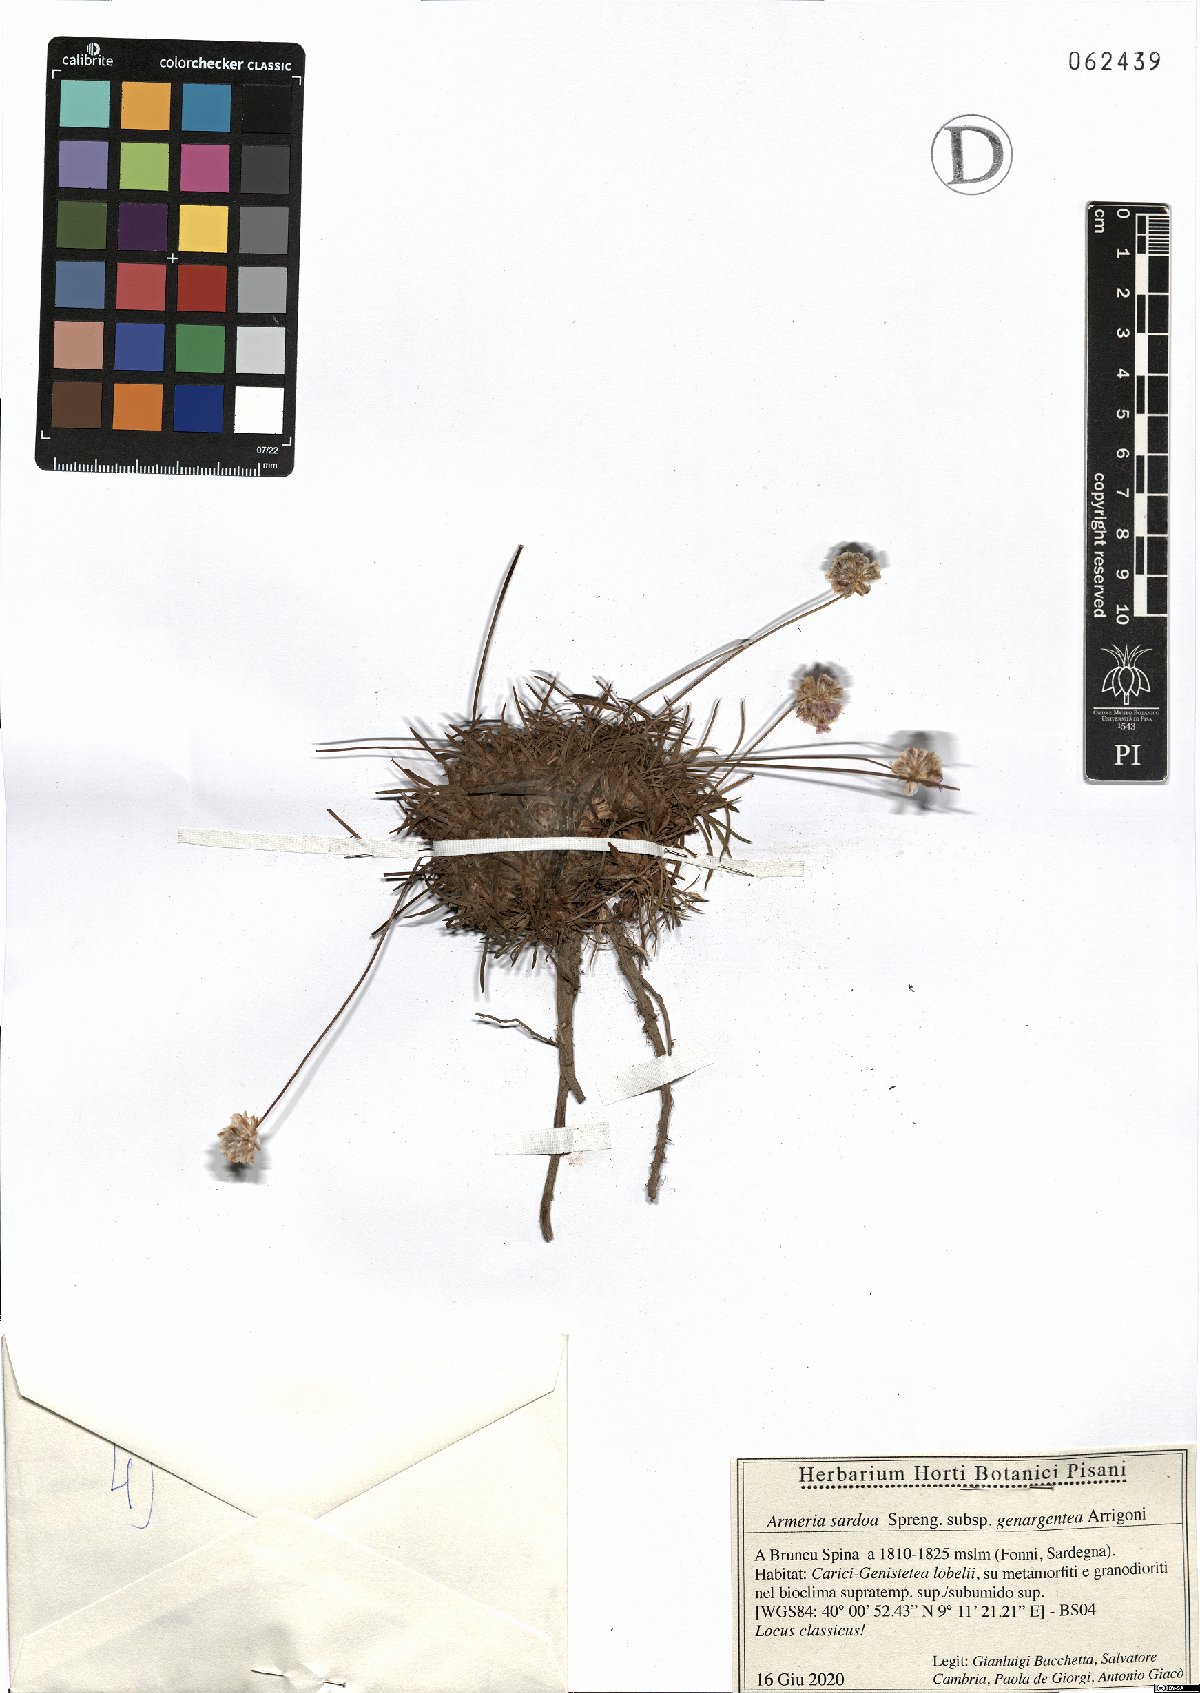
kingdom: Plantae
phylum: Tracheophyta
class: Magnoliopsida
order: Caryophyllales
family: Plumbaginaceae
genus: Armeria
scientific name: Armeria sardoa
